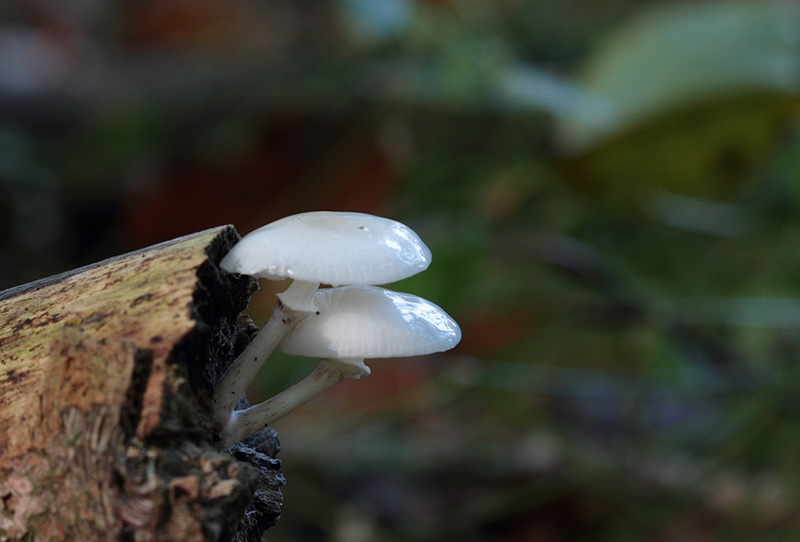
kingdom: Fungi
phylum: Basidiomycota
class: Agaricomycetes
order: Agaricales
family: Physalacriaceae
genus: Mucidula
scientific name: Mucidula mucida
